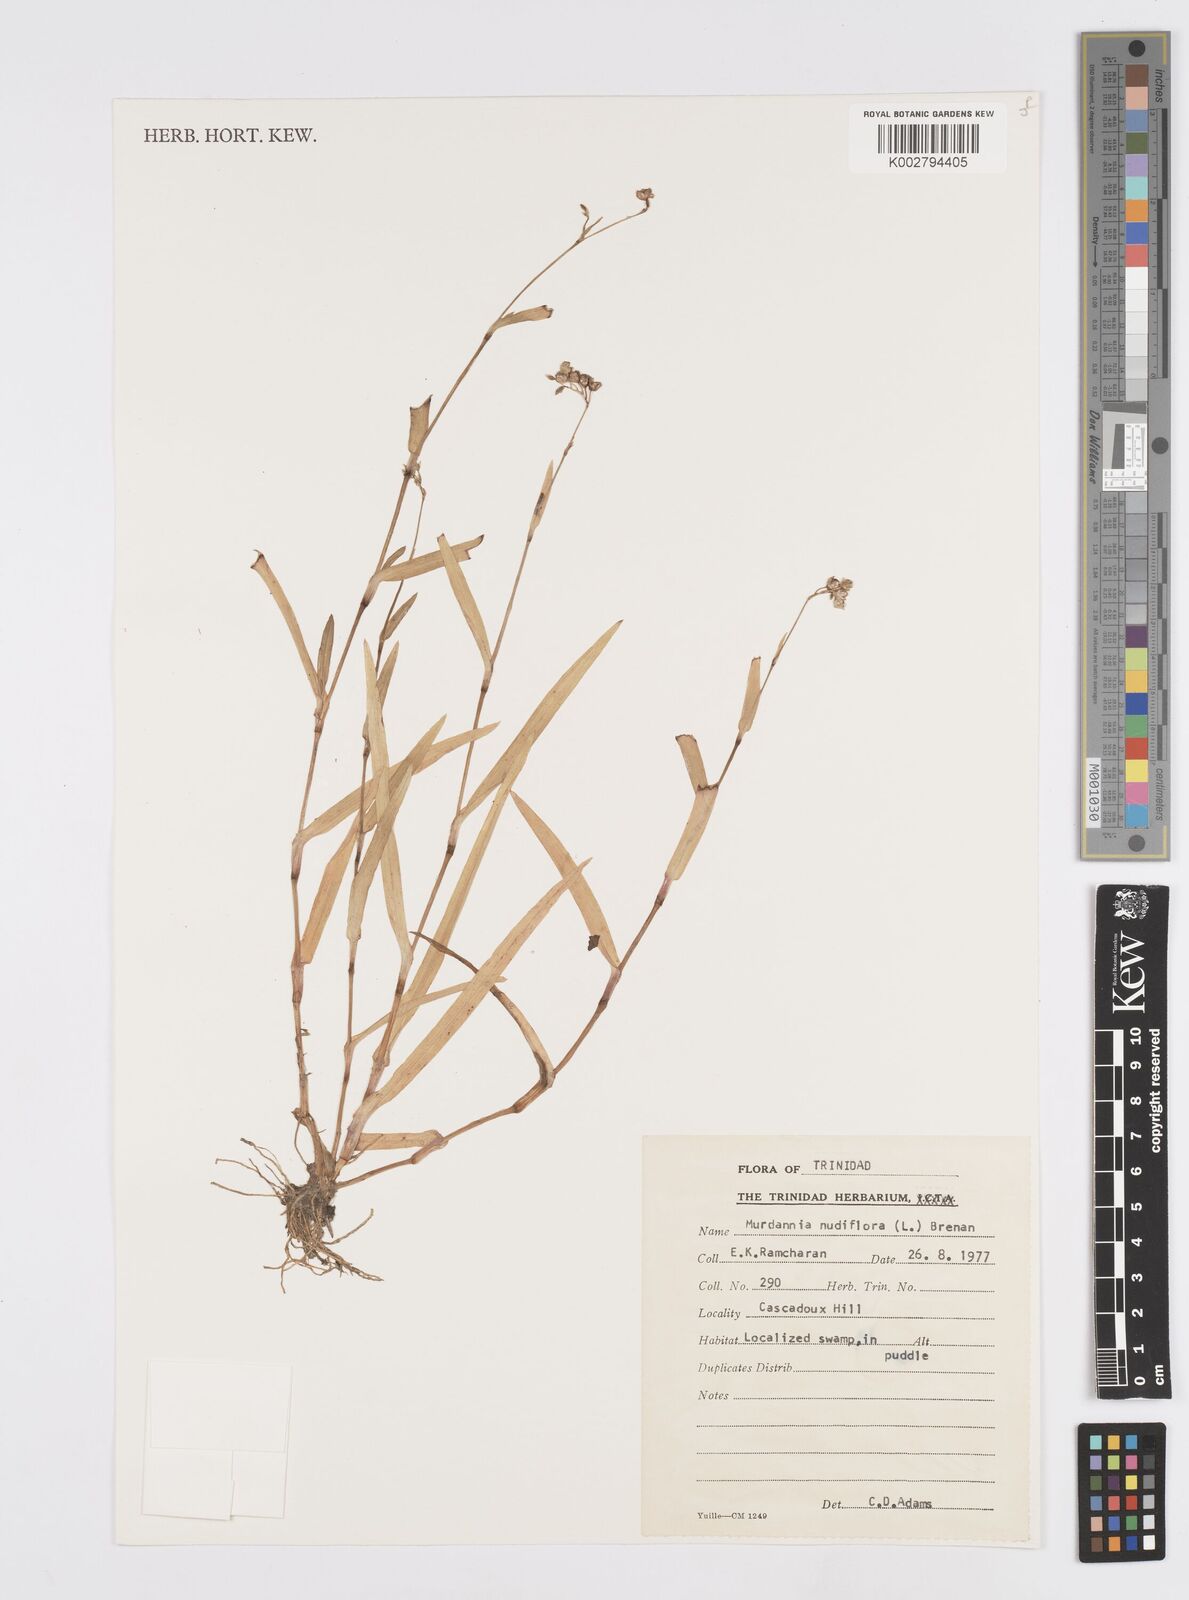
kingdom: Plantae
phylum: Tracheophyta
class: Liliopsida
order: Commelinales
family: Commelinaceae
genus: Murdannia
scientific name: Murdannia nudiflora
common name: Nakedstem dewflower
